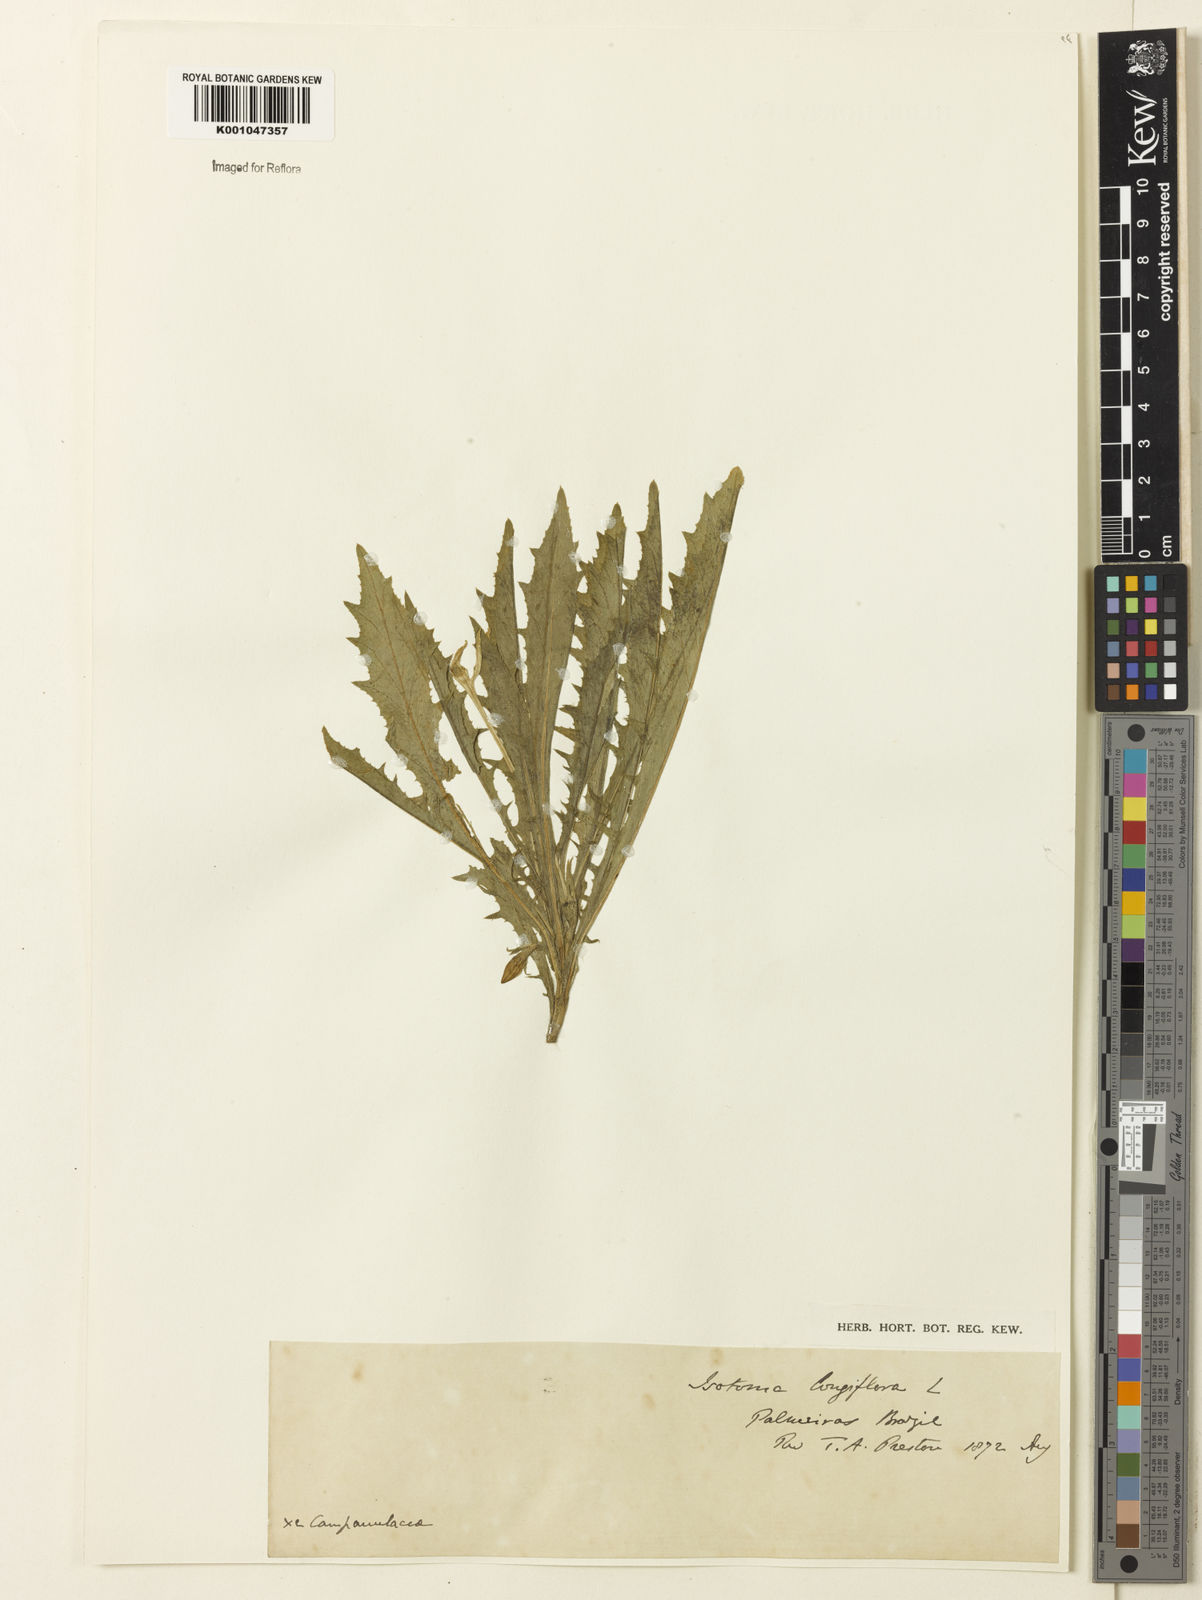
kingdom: Plantae
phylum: Tracheophyta
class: Magnoliopsida
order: Asterales
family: Campanulaceae
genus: Hippobroma
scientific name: Hippobroma longiflora
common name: Madamfate
